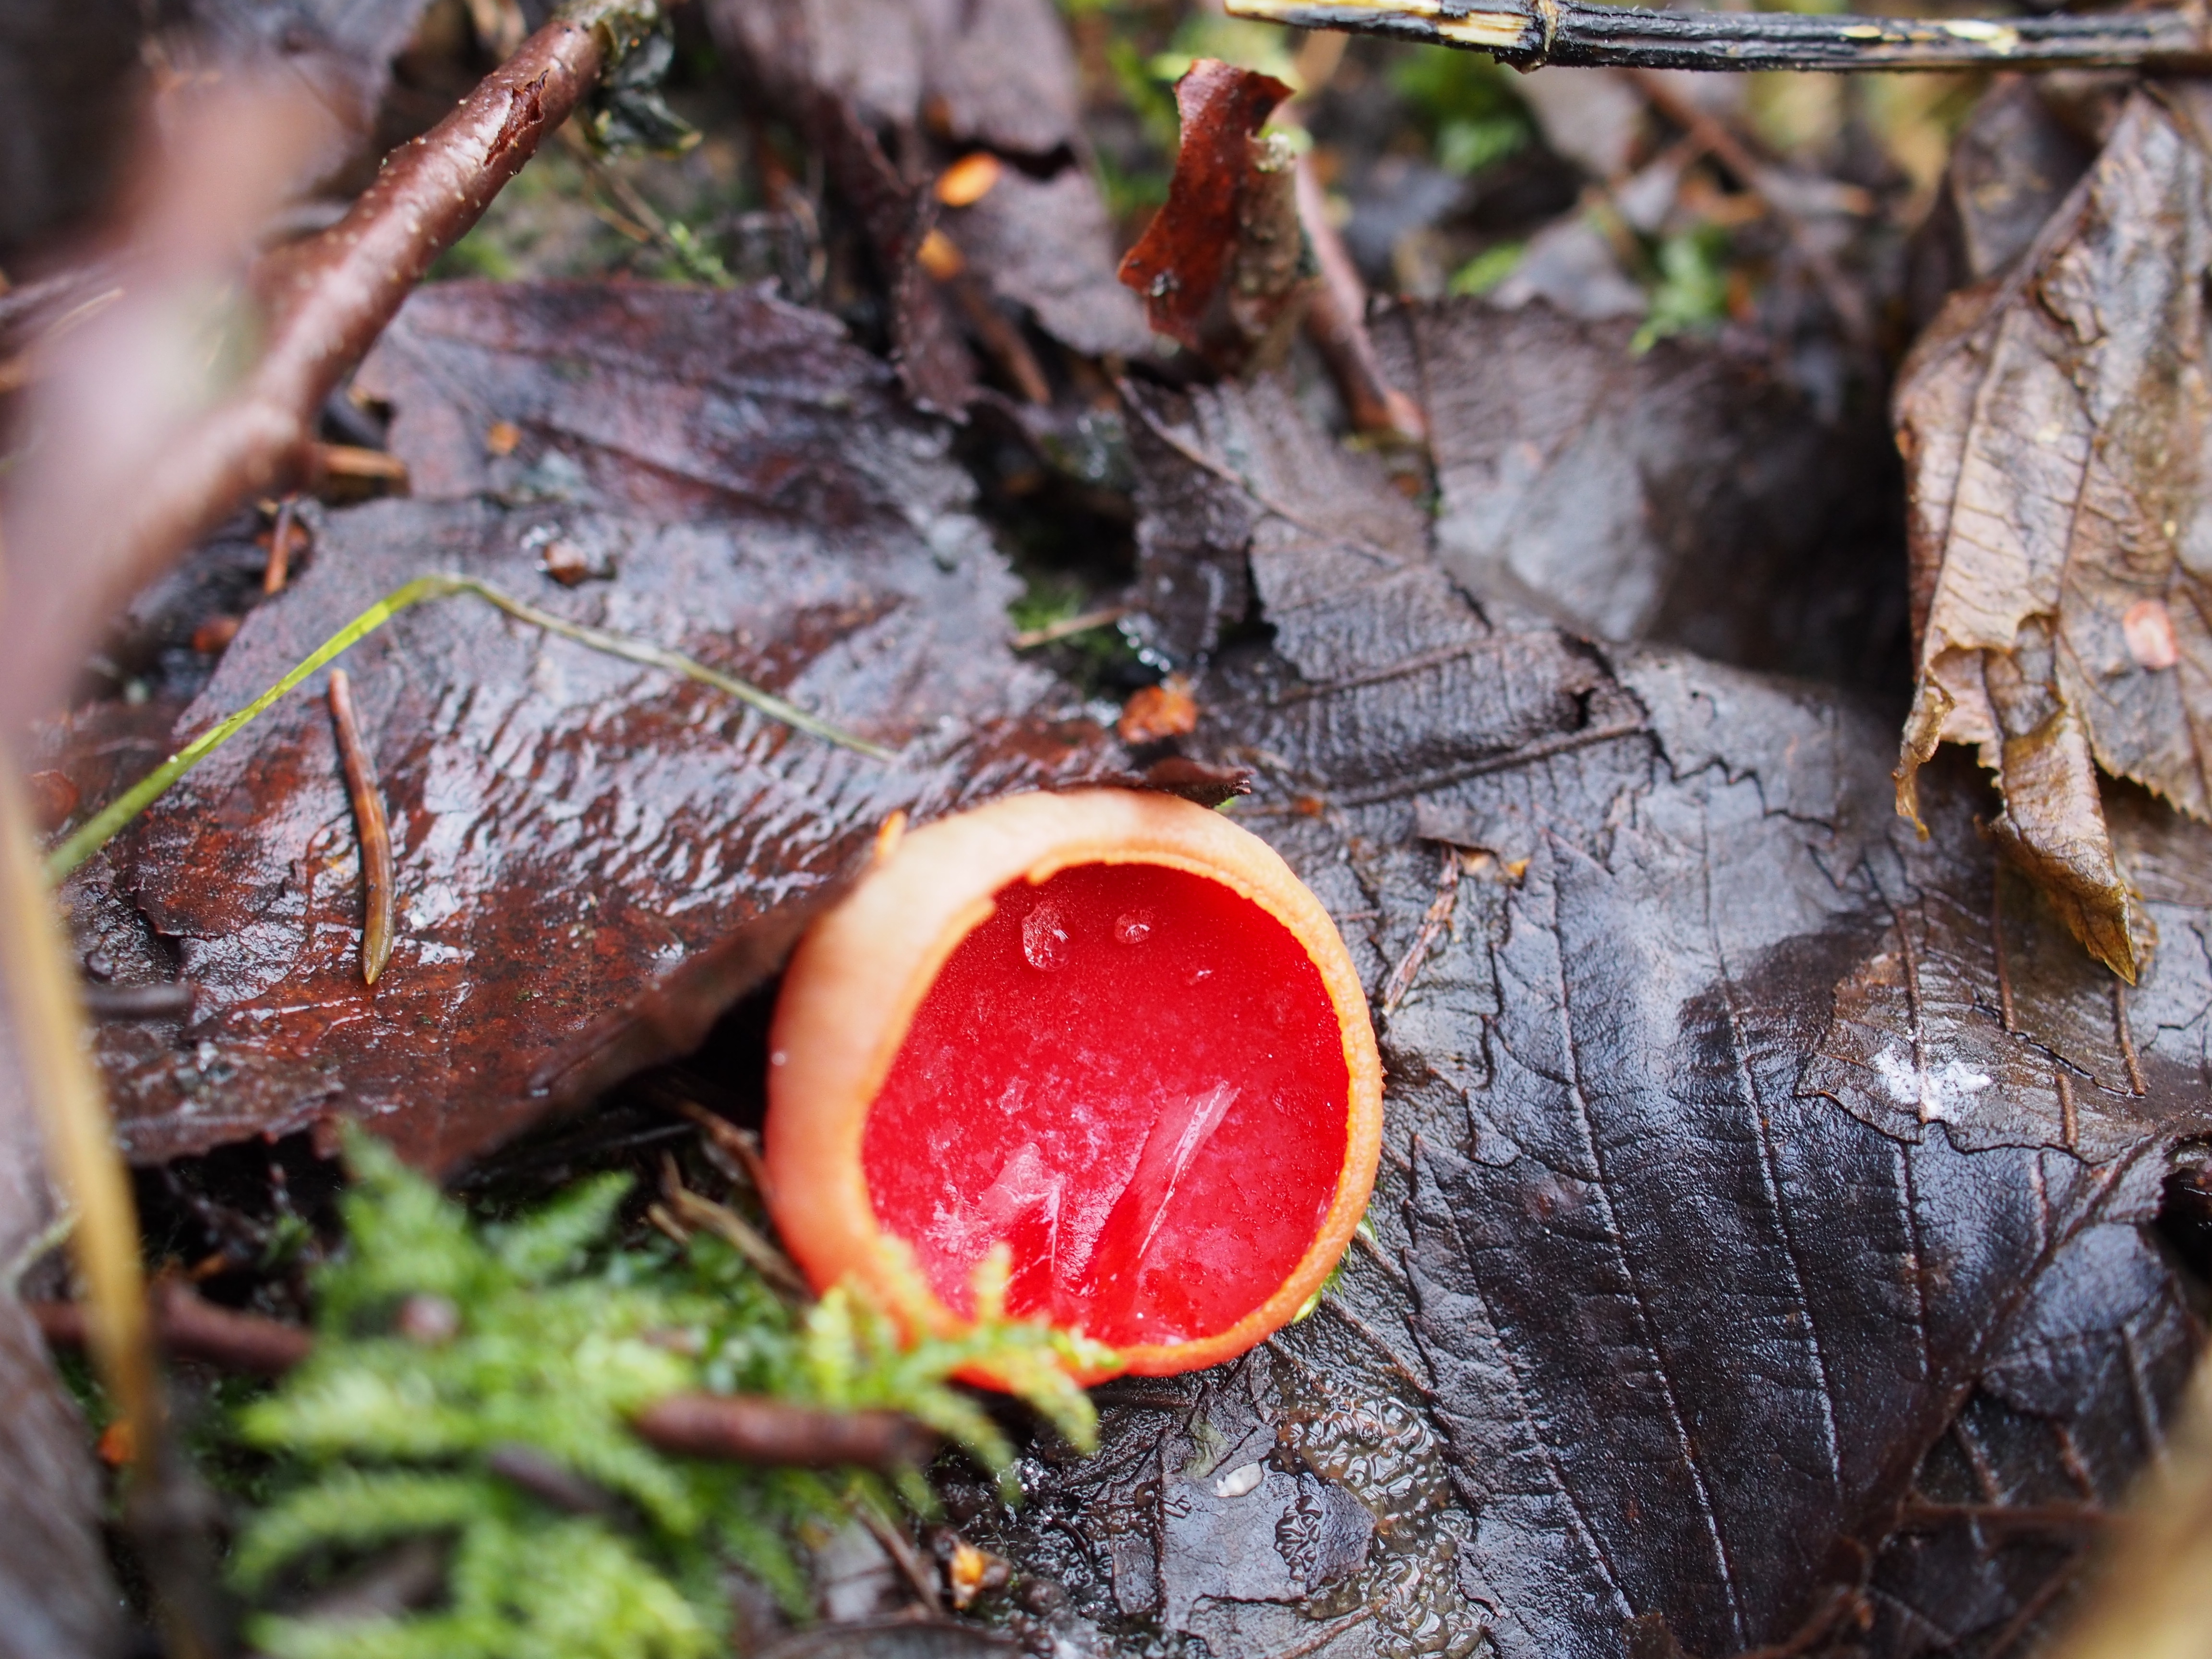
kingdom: Fungi
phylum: Ascomycota
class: Pezizomycetes
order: Pezizales
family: Sarcoscyphaceae
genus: Sarcoscypha
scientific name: Sarcoscypha austriaca
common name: Scarlet elfcup
